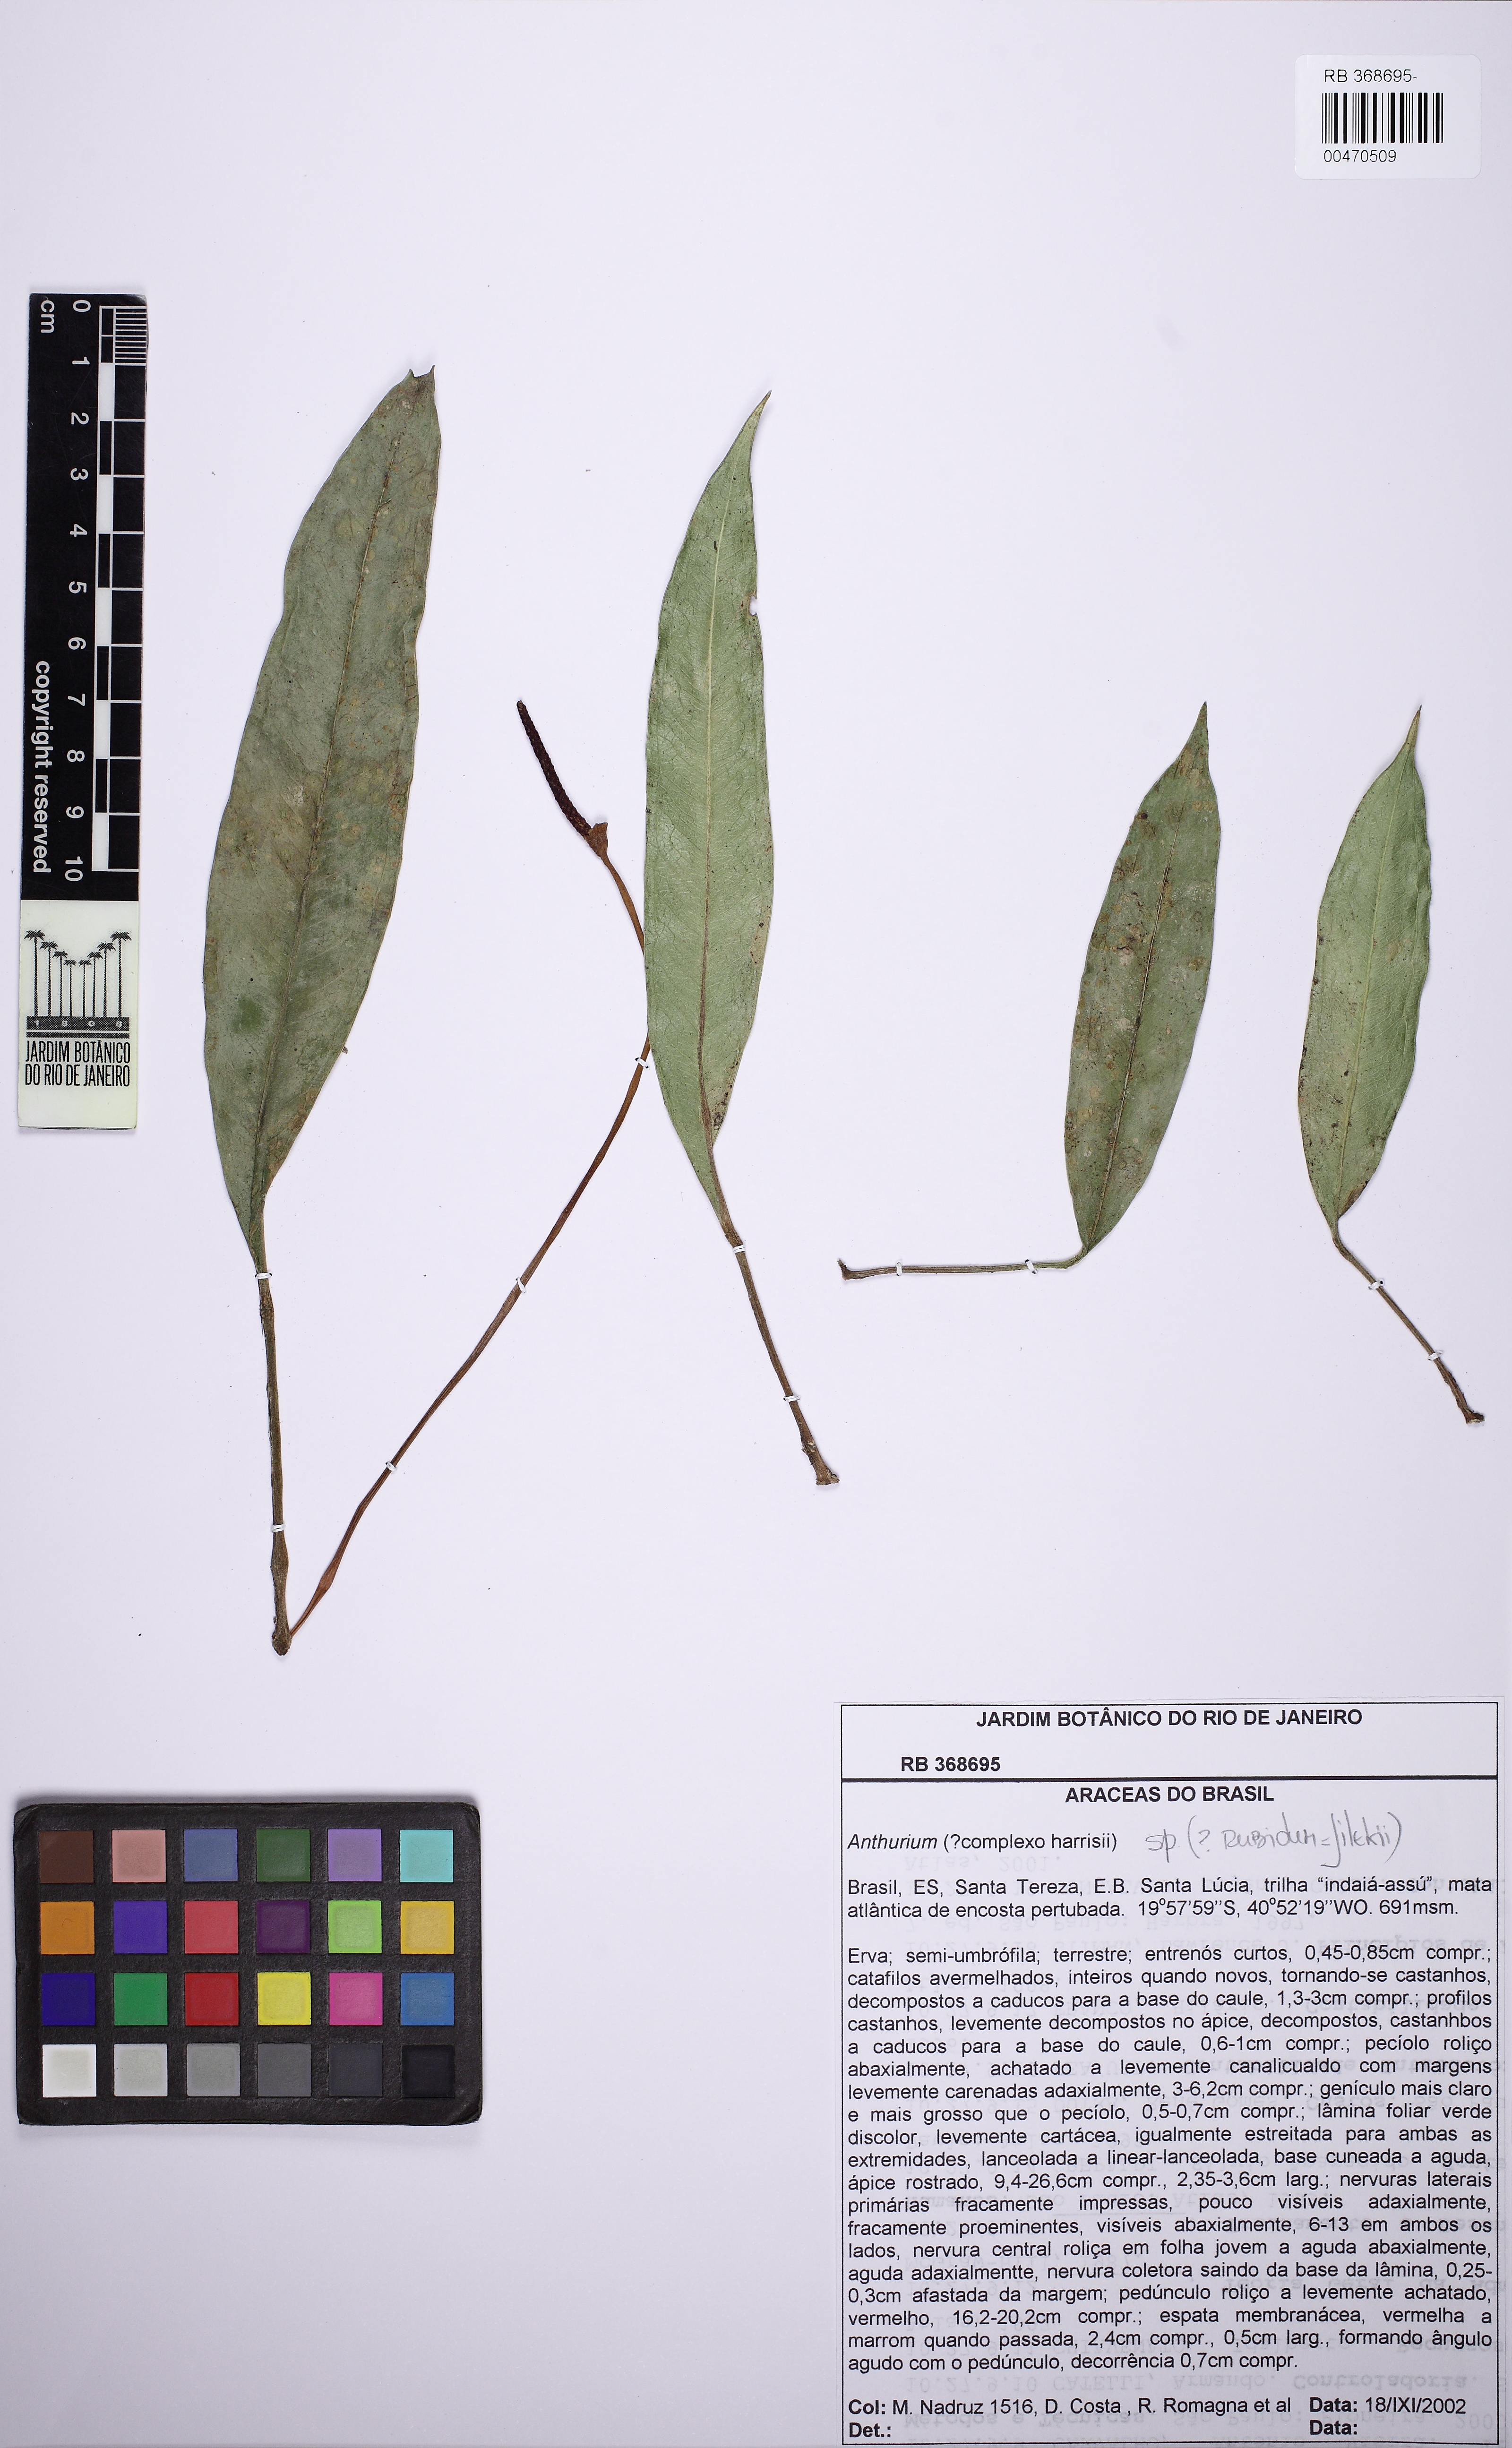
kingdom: Plantae
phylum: Tracheophyta
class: Liliopsida
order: Alismatales
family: Araceae
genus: Anthurium
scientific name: Anthurium jilekii
